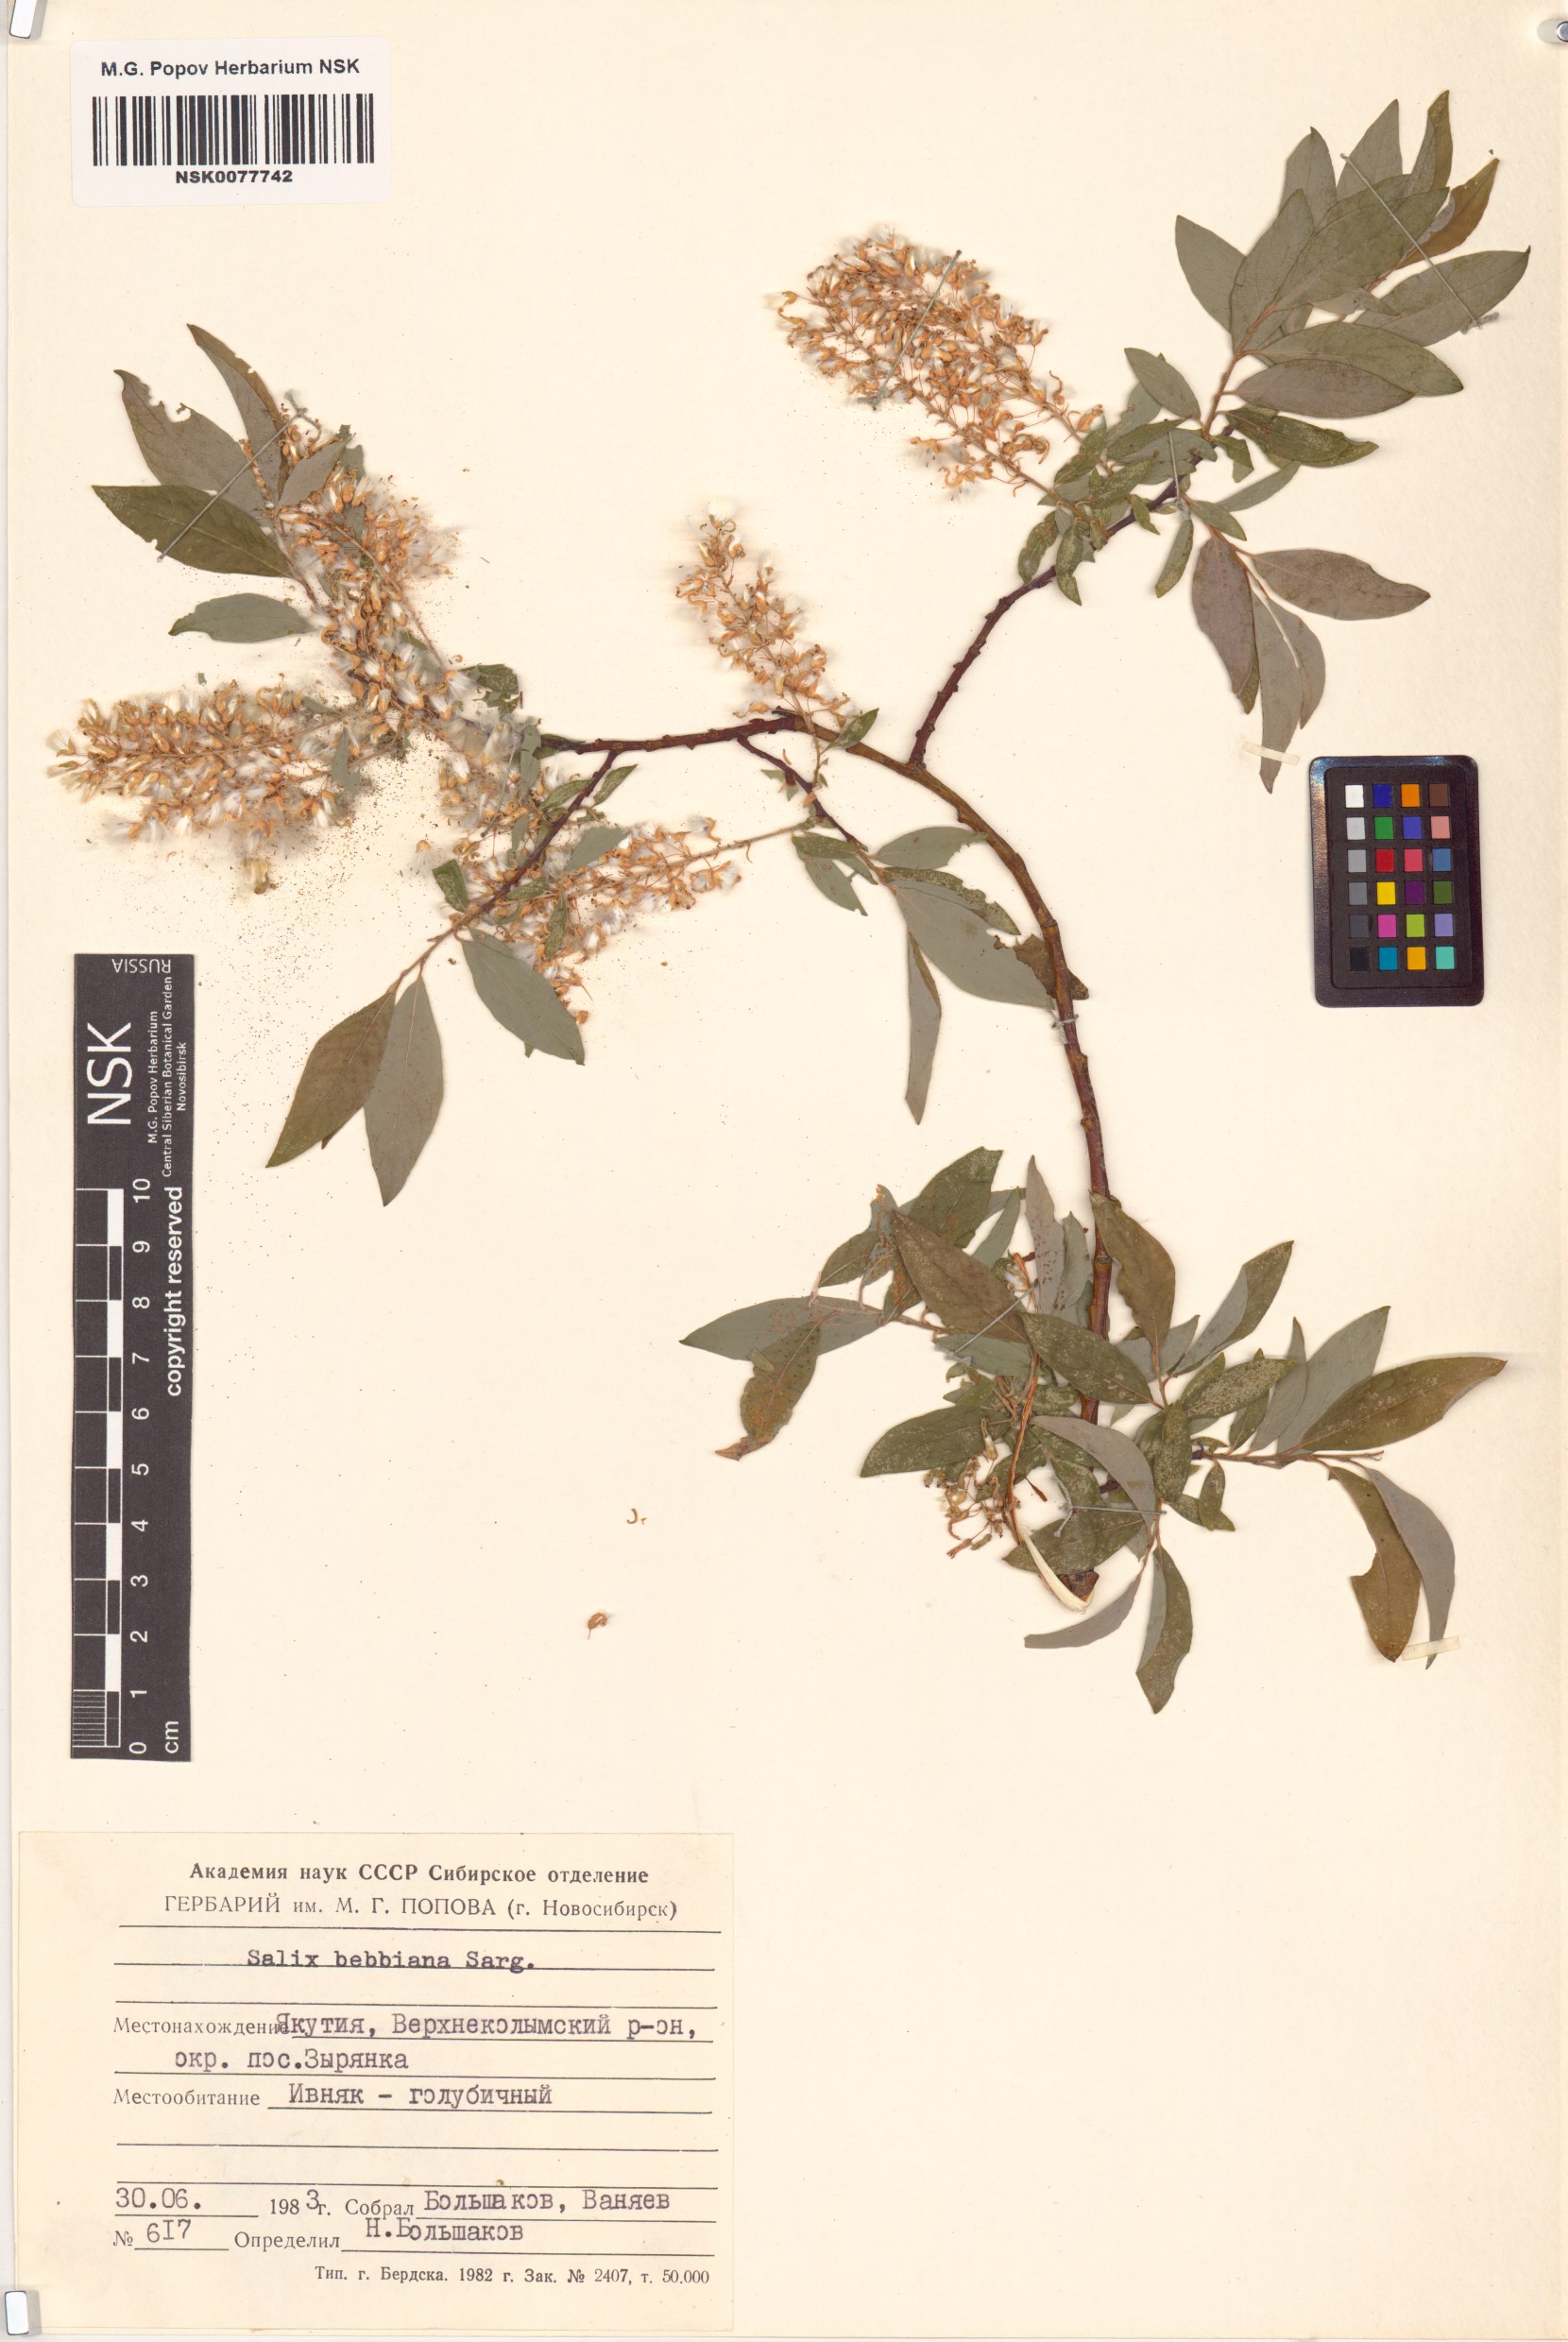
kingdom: Plantae
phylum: Tracheophyta
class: Magnoliopsida
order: Malpighiales
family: Salicaceae
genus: Salix
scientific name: Salix bebbiana
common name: Bebb's willow
